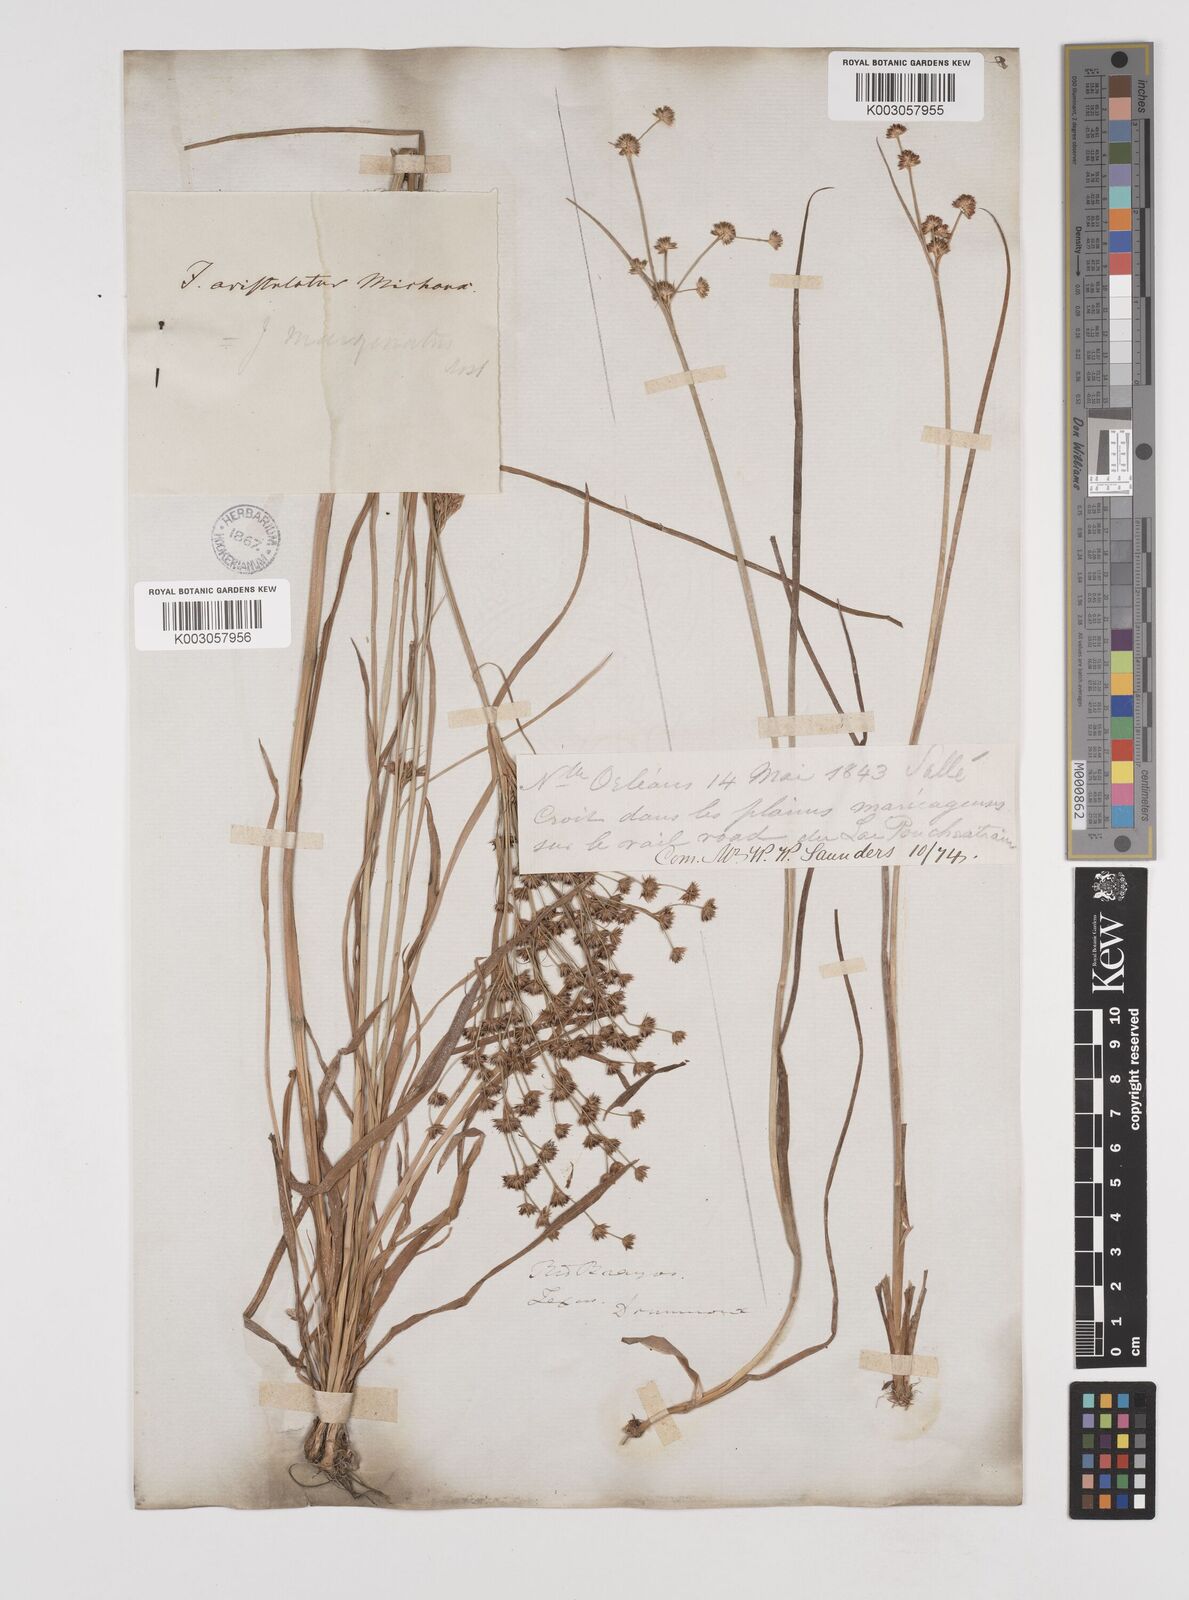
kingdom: Plantae
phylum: Tracheophyta
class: Liliopsida
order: Poales
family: Juncaceae
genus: Juncus
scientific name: Juncus marginatus
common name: Grass-leaf rush
